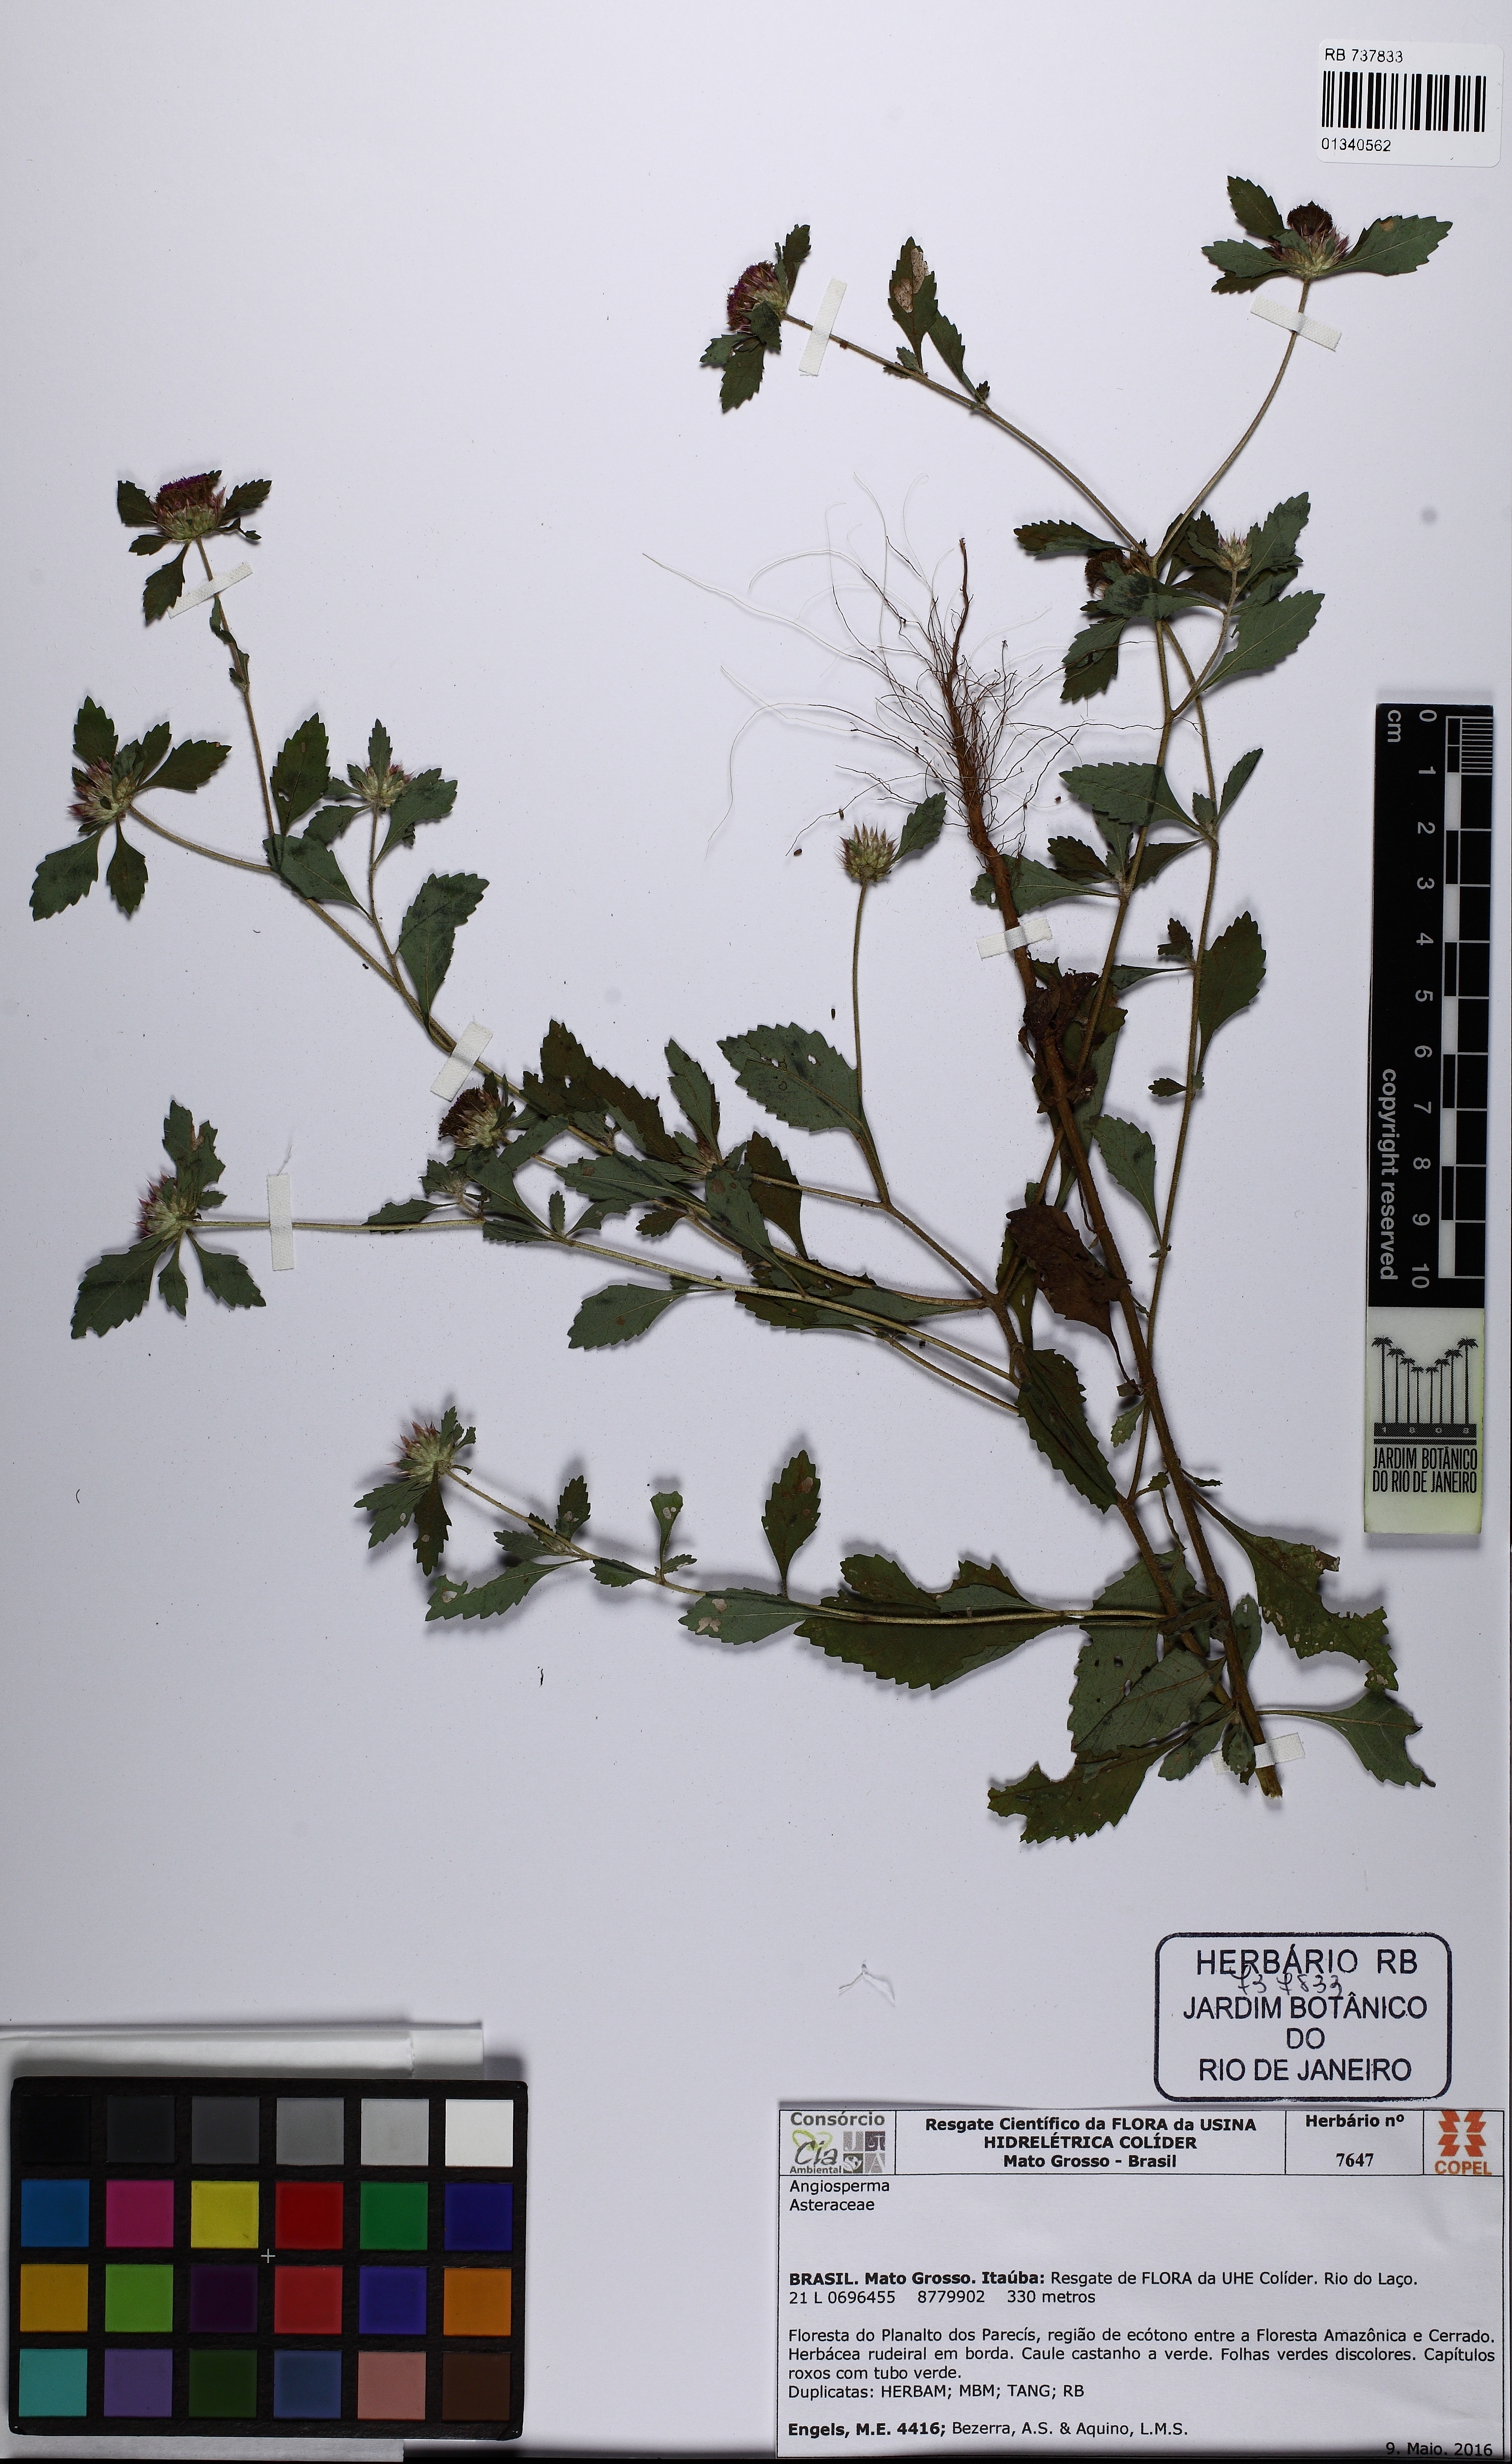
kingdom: Plantae
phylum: Tracheophyta
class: Magnoliopsida
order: Asterales
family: Asteraceae
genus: Centratherum
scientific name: Centratherum punctatum
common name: Larkdaisy
